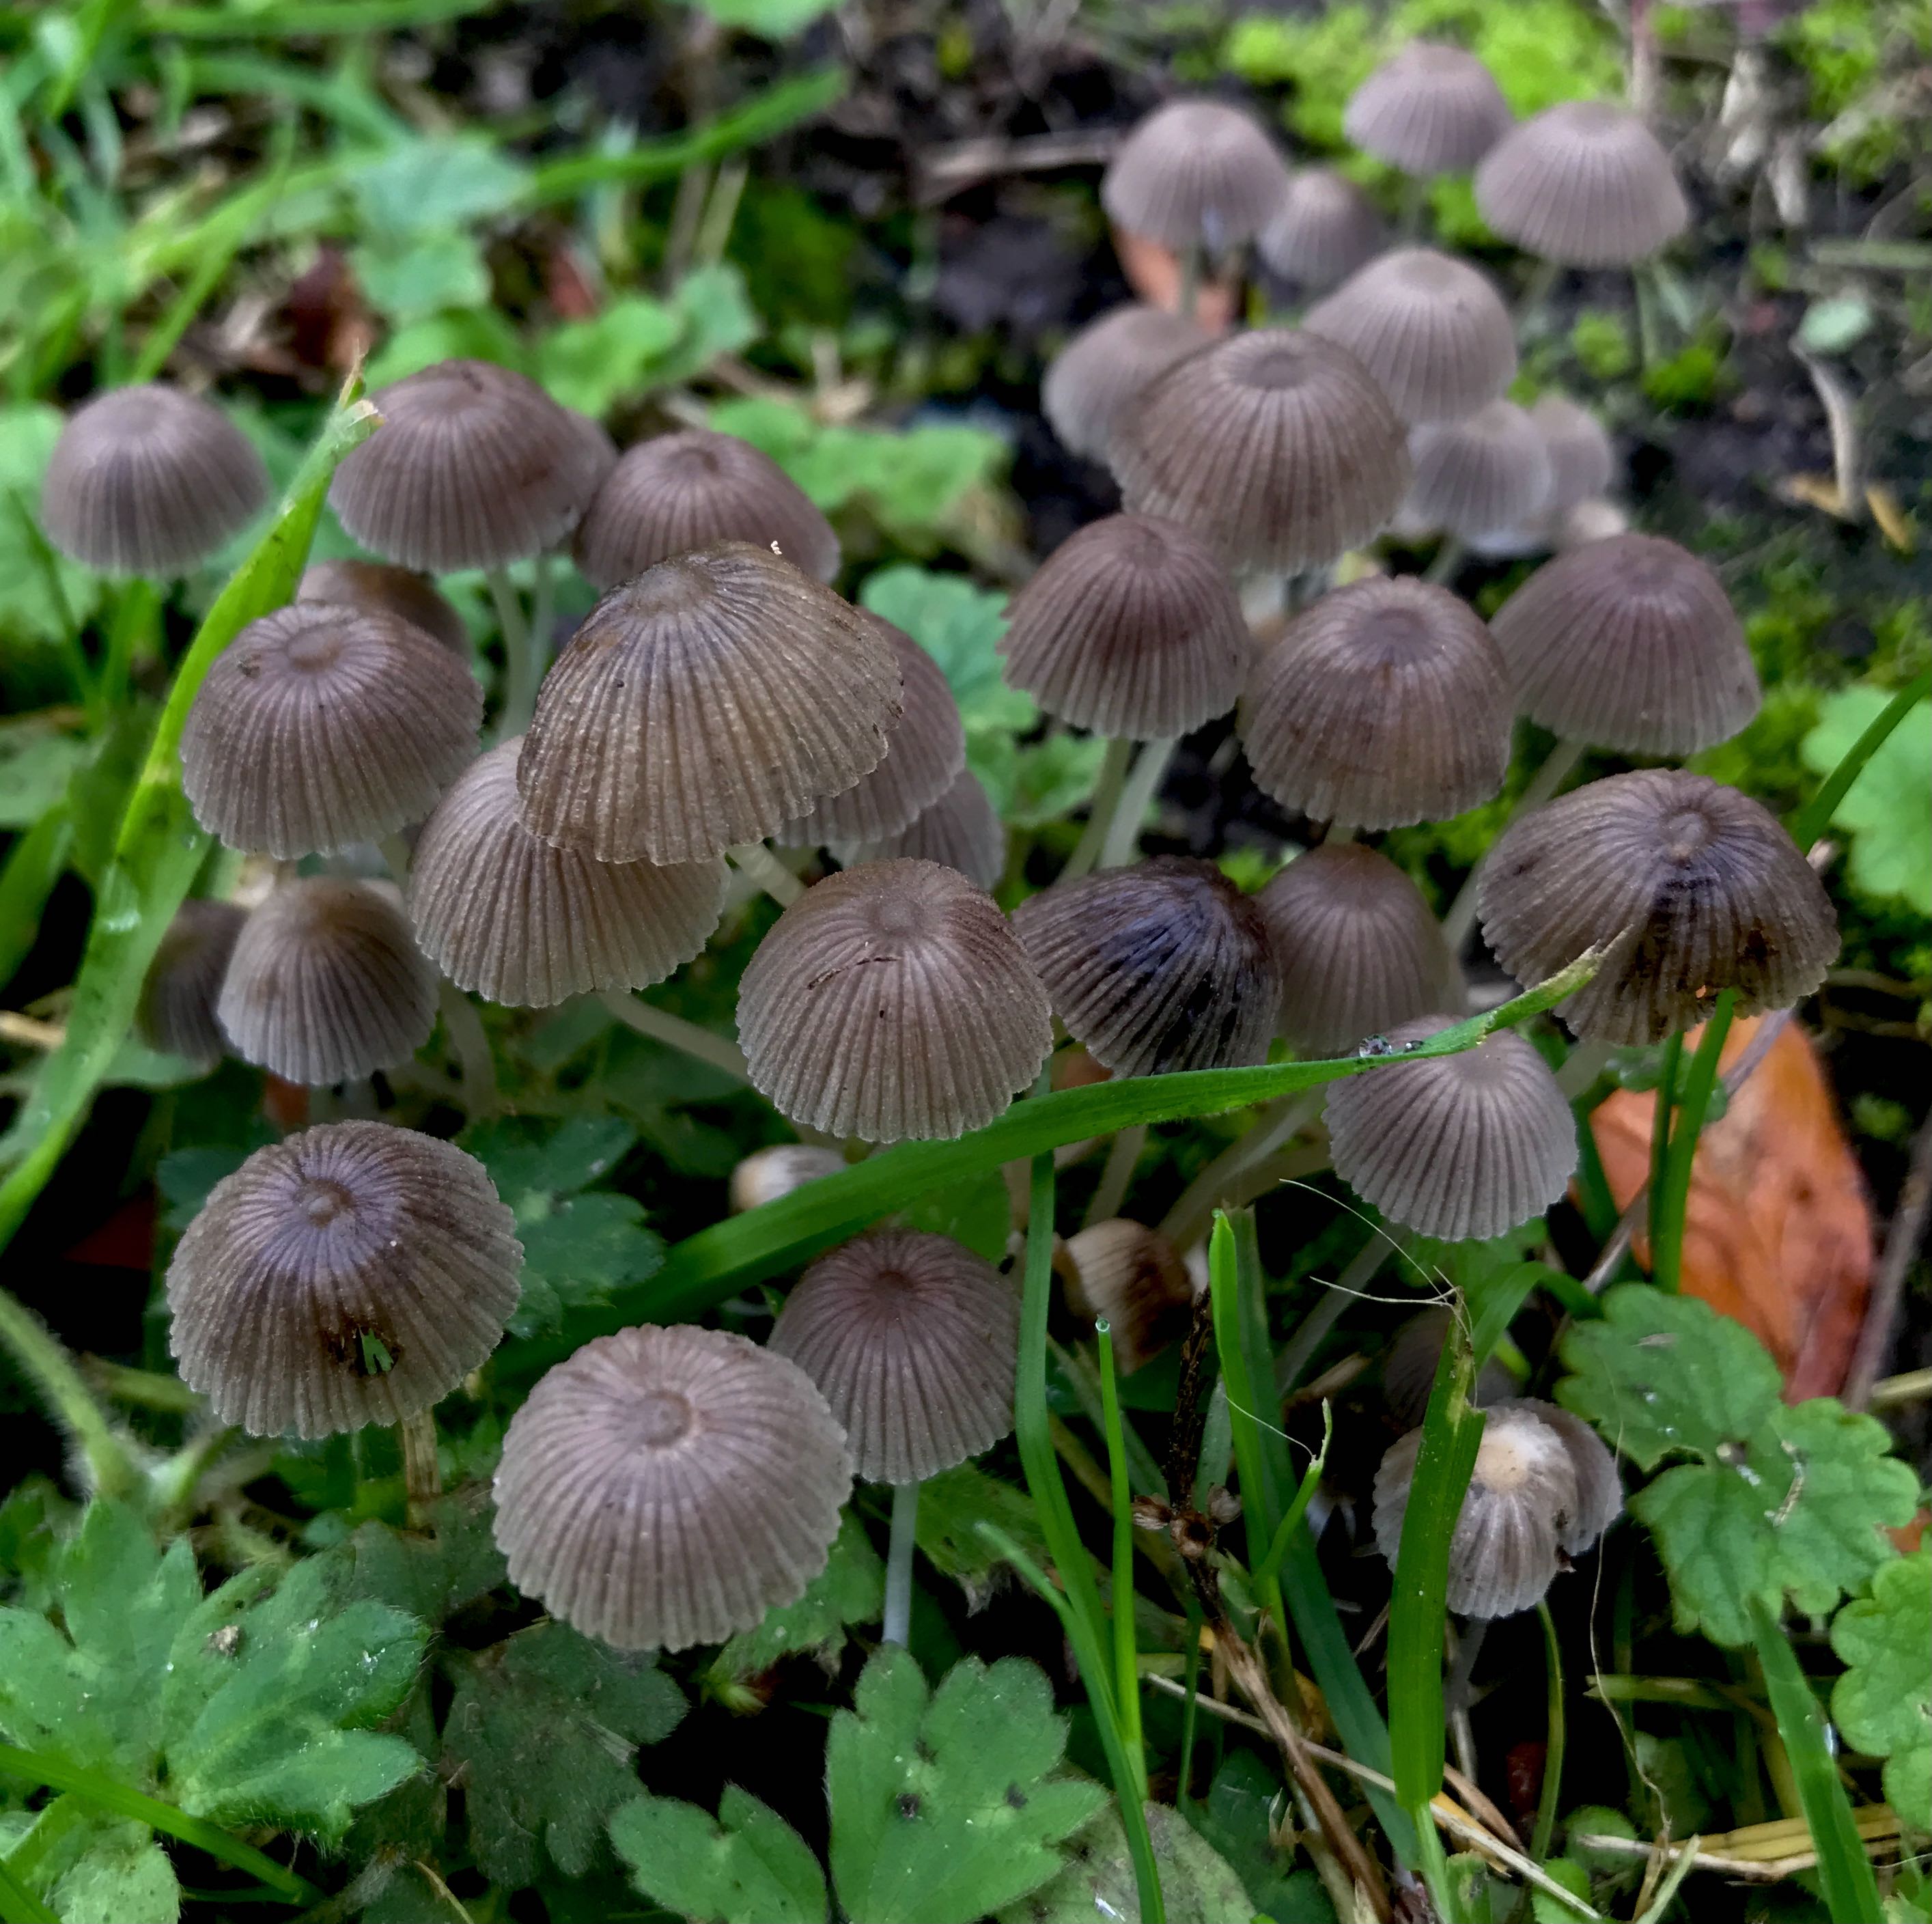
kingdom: Fungi
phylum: Basidiomycota
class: Agaricomycetes
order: Agaricales
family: Psathyrellaceae
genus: Coprinellus
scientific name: Coprinellus disseminatus
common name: bredsået blækhat
